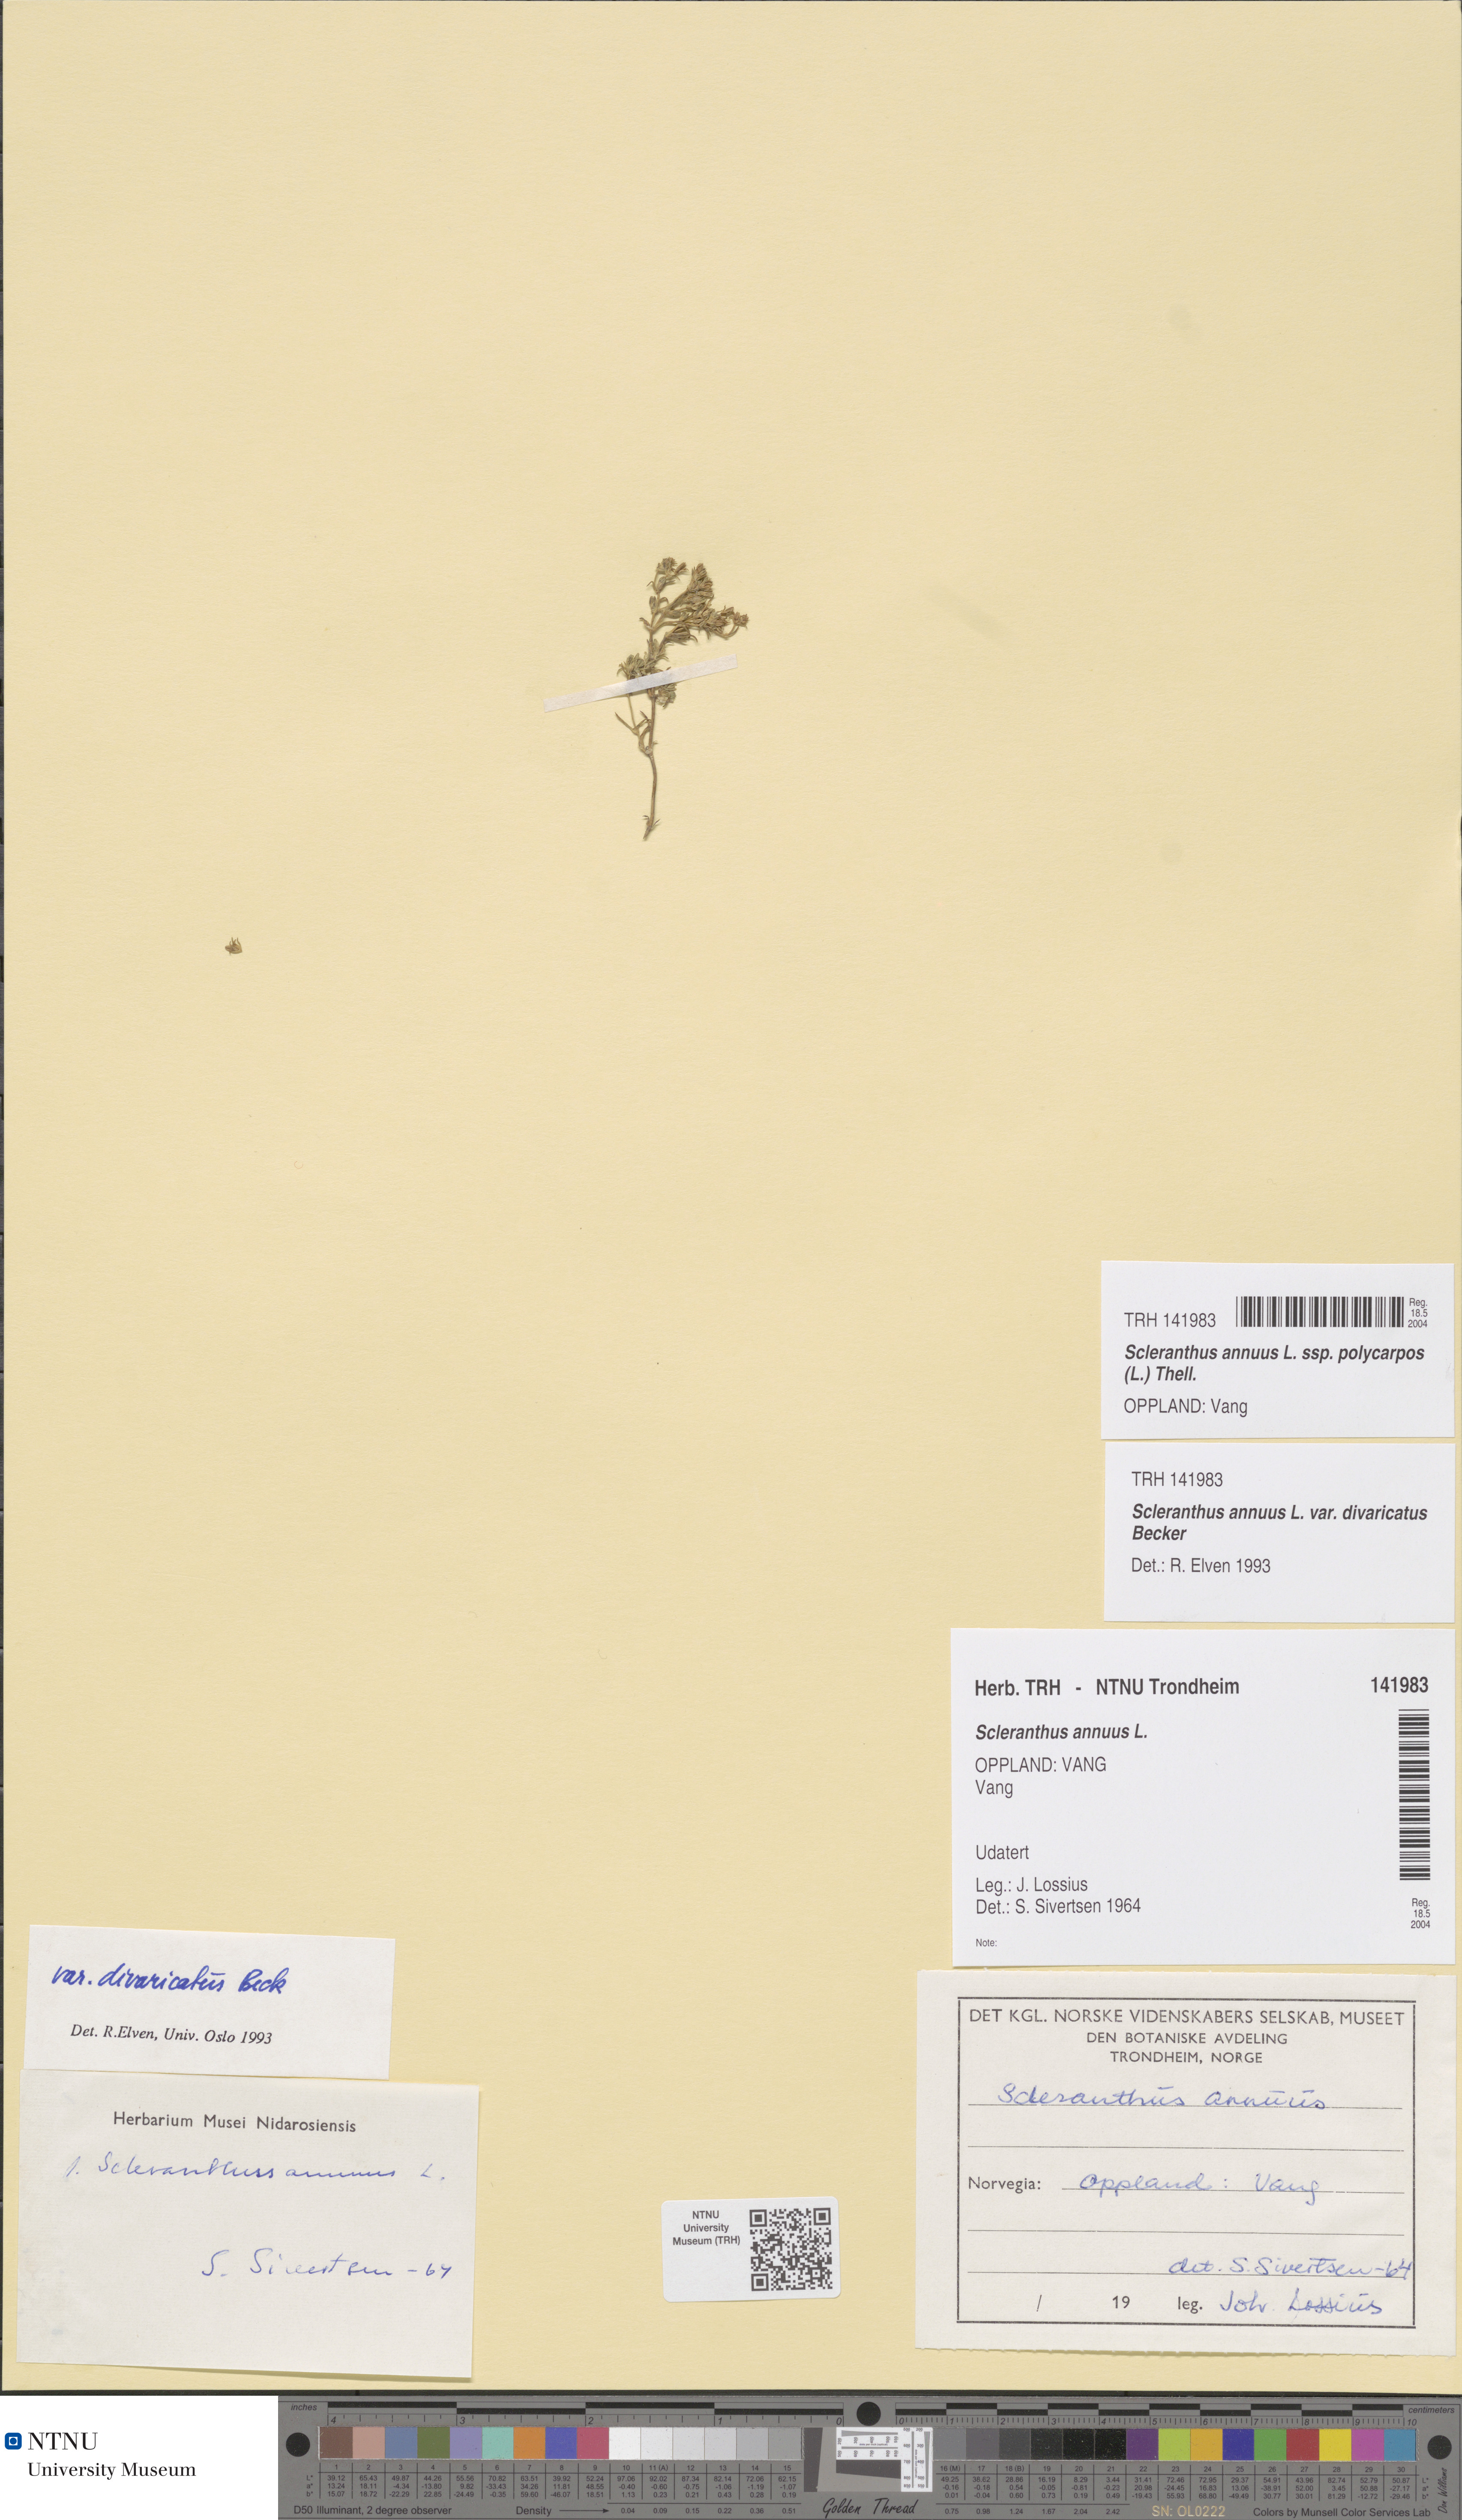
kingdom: Plantae
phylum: Tracheophyta
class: Magnoliopsida
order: Caryophyllales
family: Caryophyllaceae
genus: Scleranthus
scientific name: Scleranthus annuus
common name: Annual knawel
